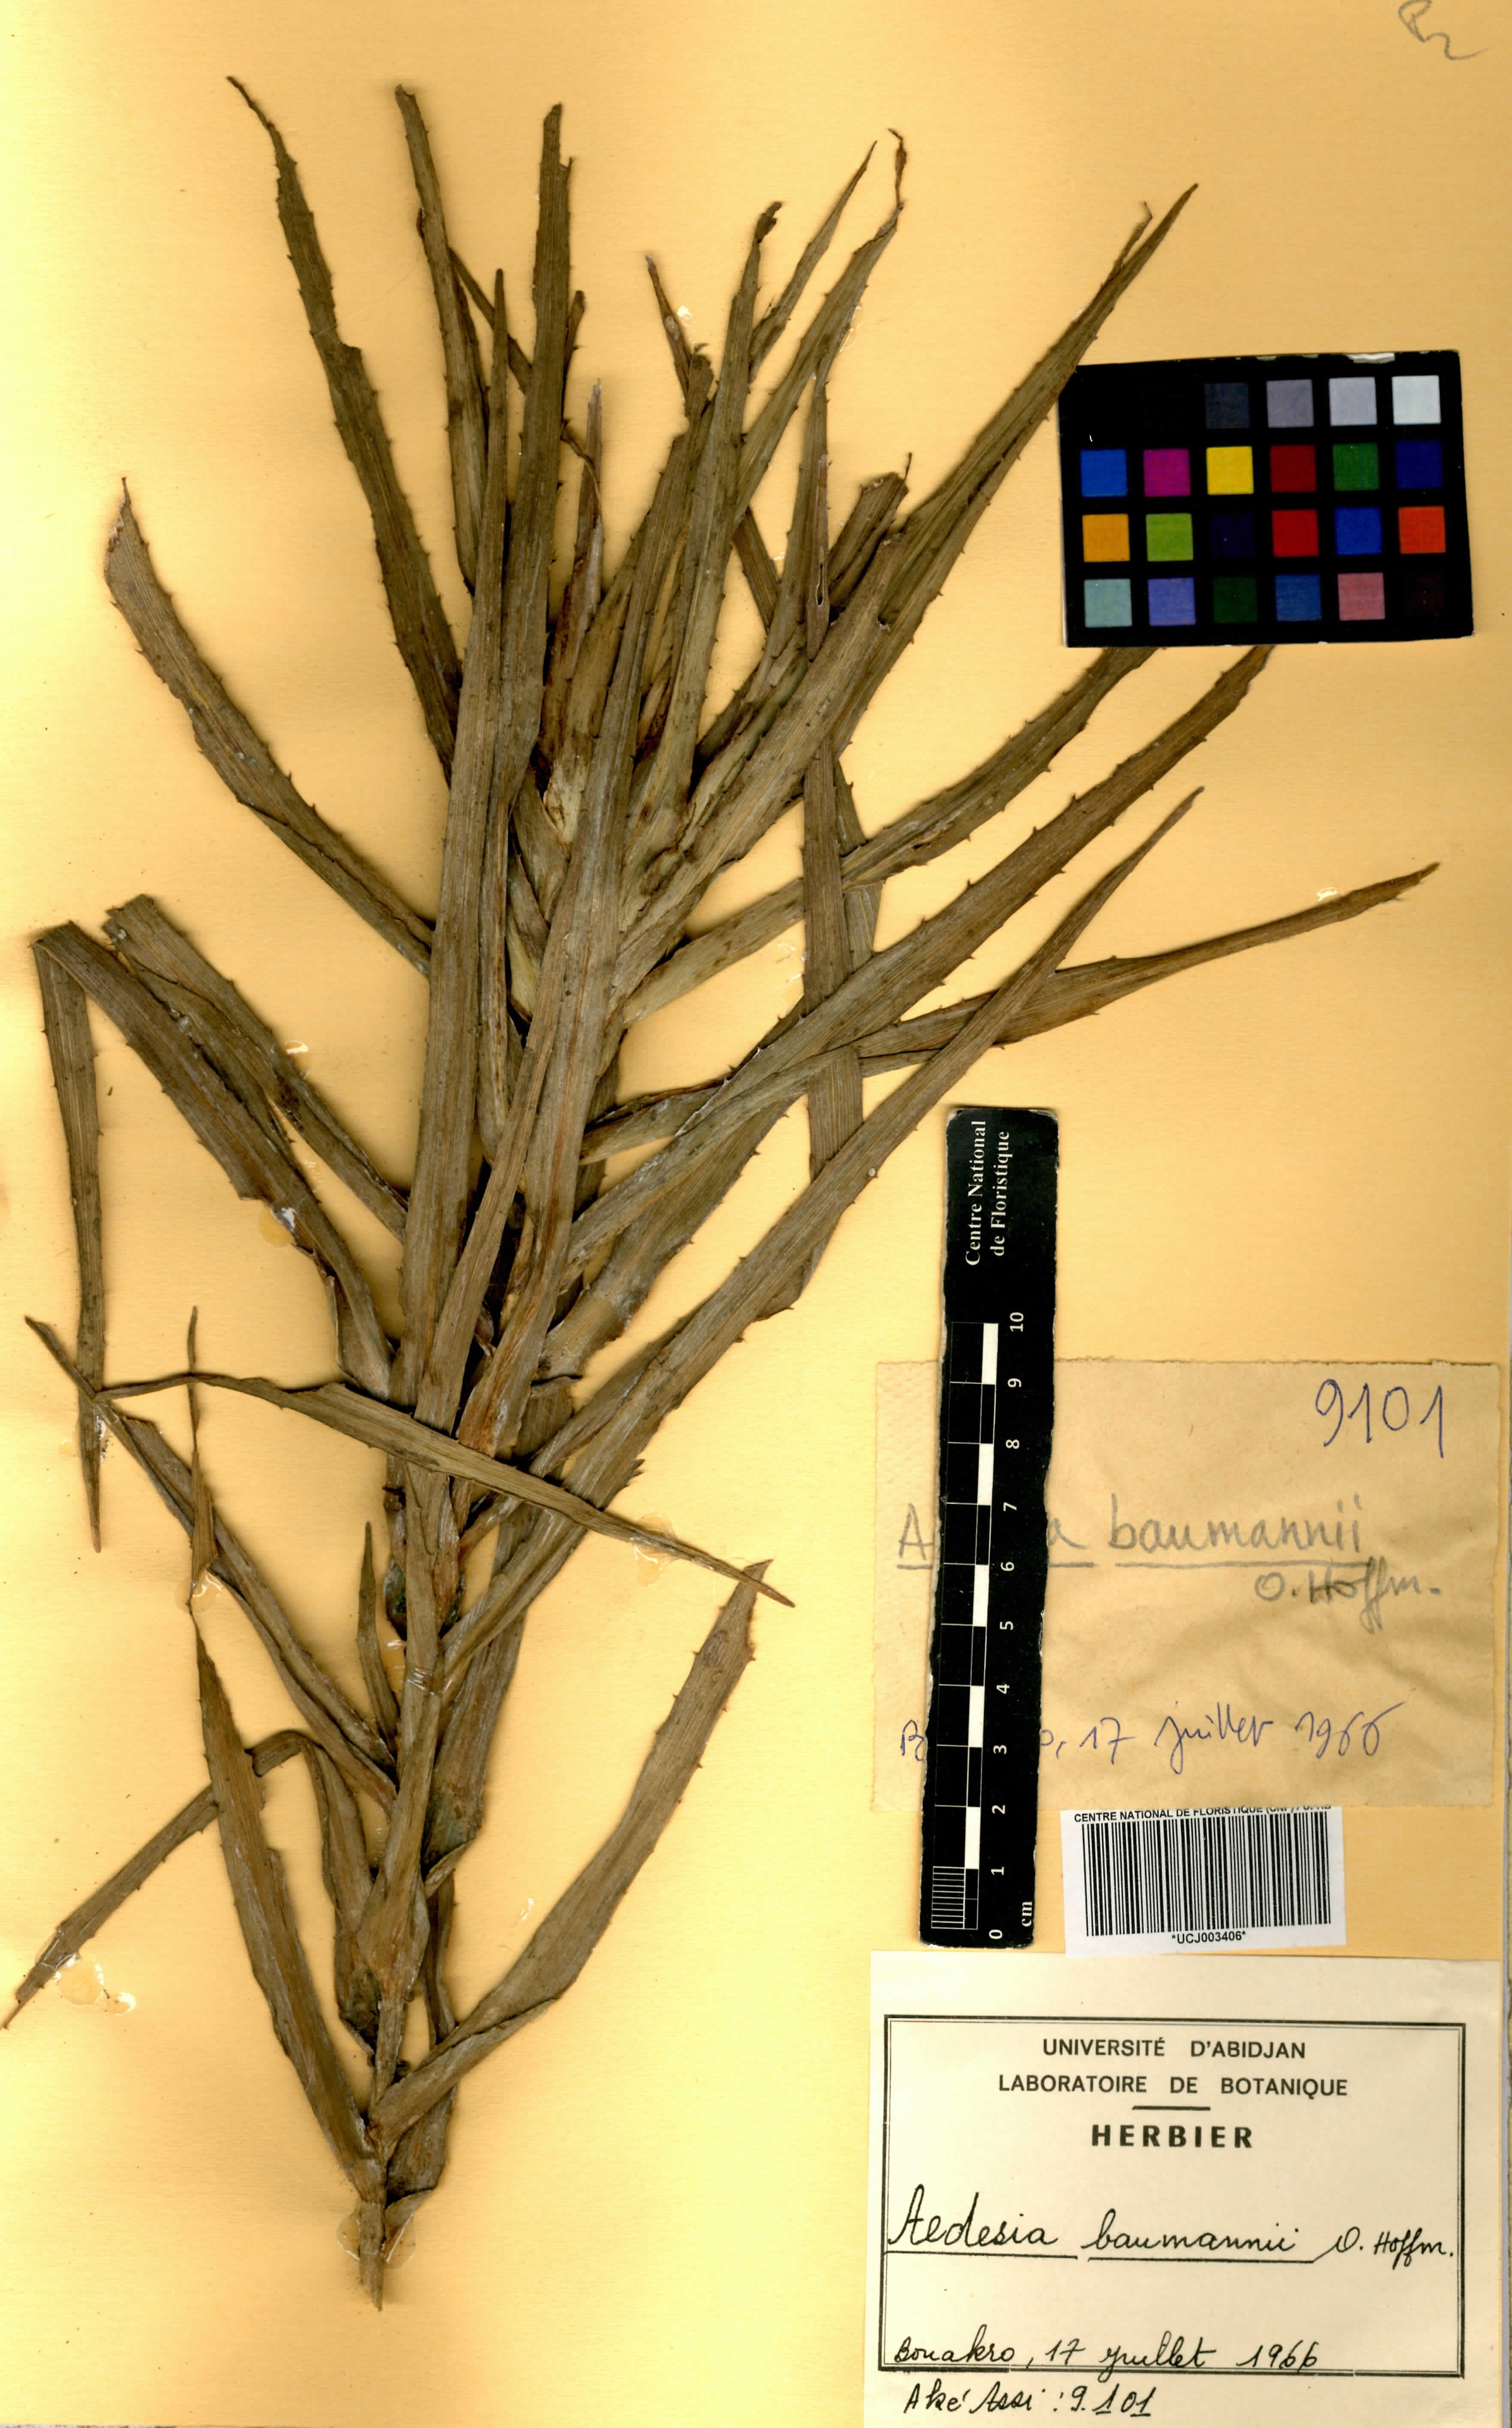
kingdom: Plantae
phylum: Tracheophyta
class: Magnoliopsida
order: Asterales
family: Asteraceae
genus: Aedesia
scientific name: Aedesia glabra
